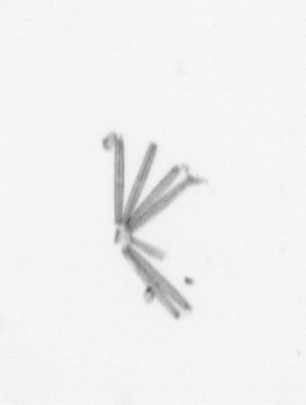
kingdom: Chromista
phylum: Ochrophyta
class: Bacillariophyceae
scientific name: Bacillariophyceae
